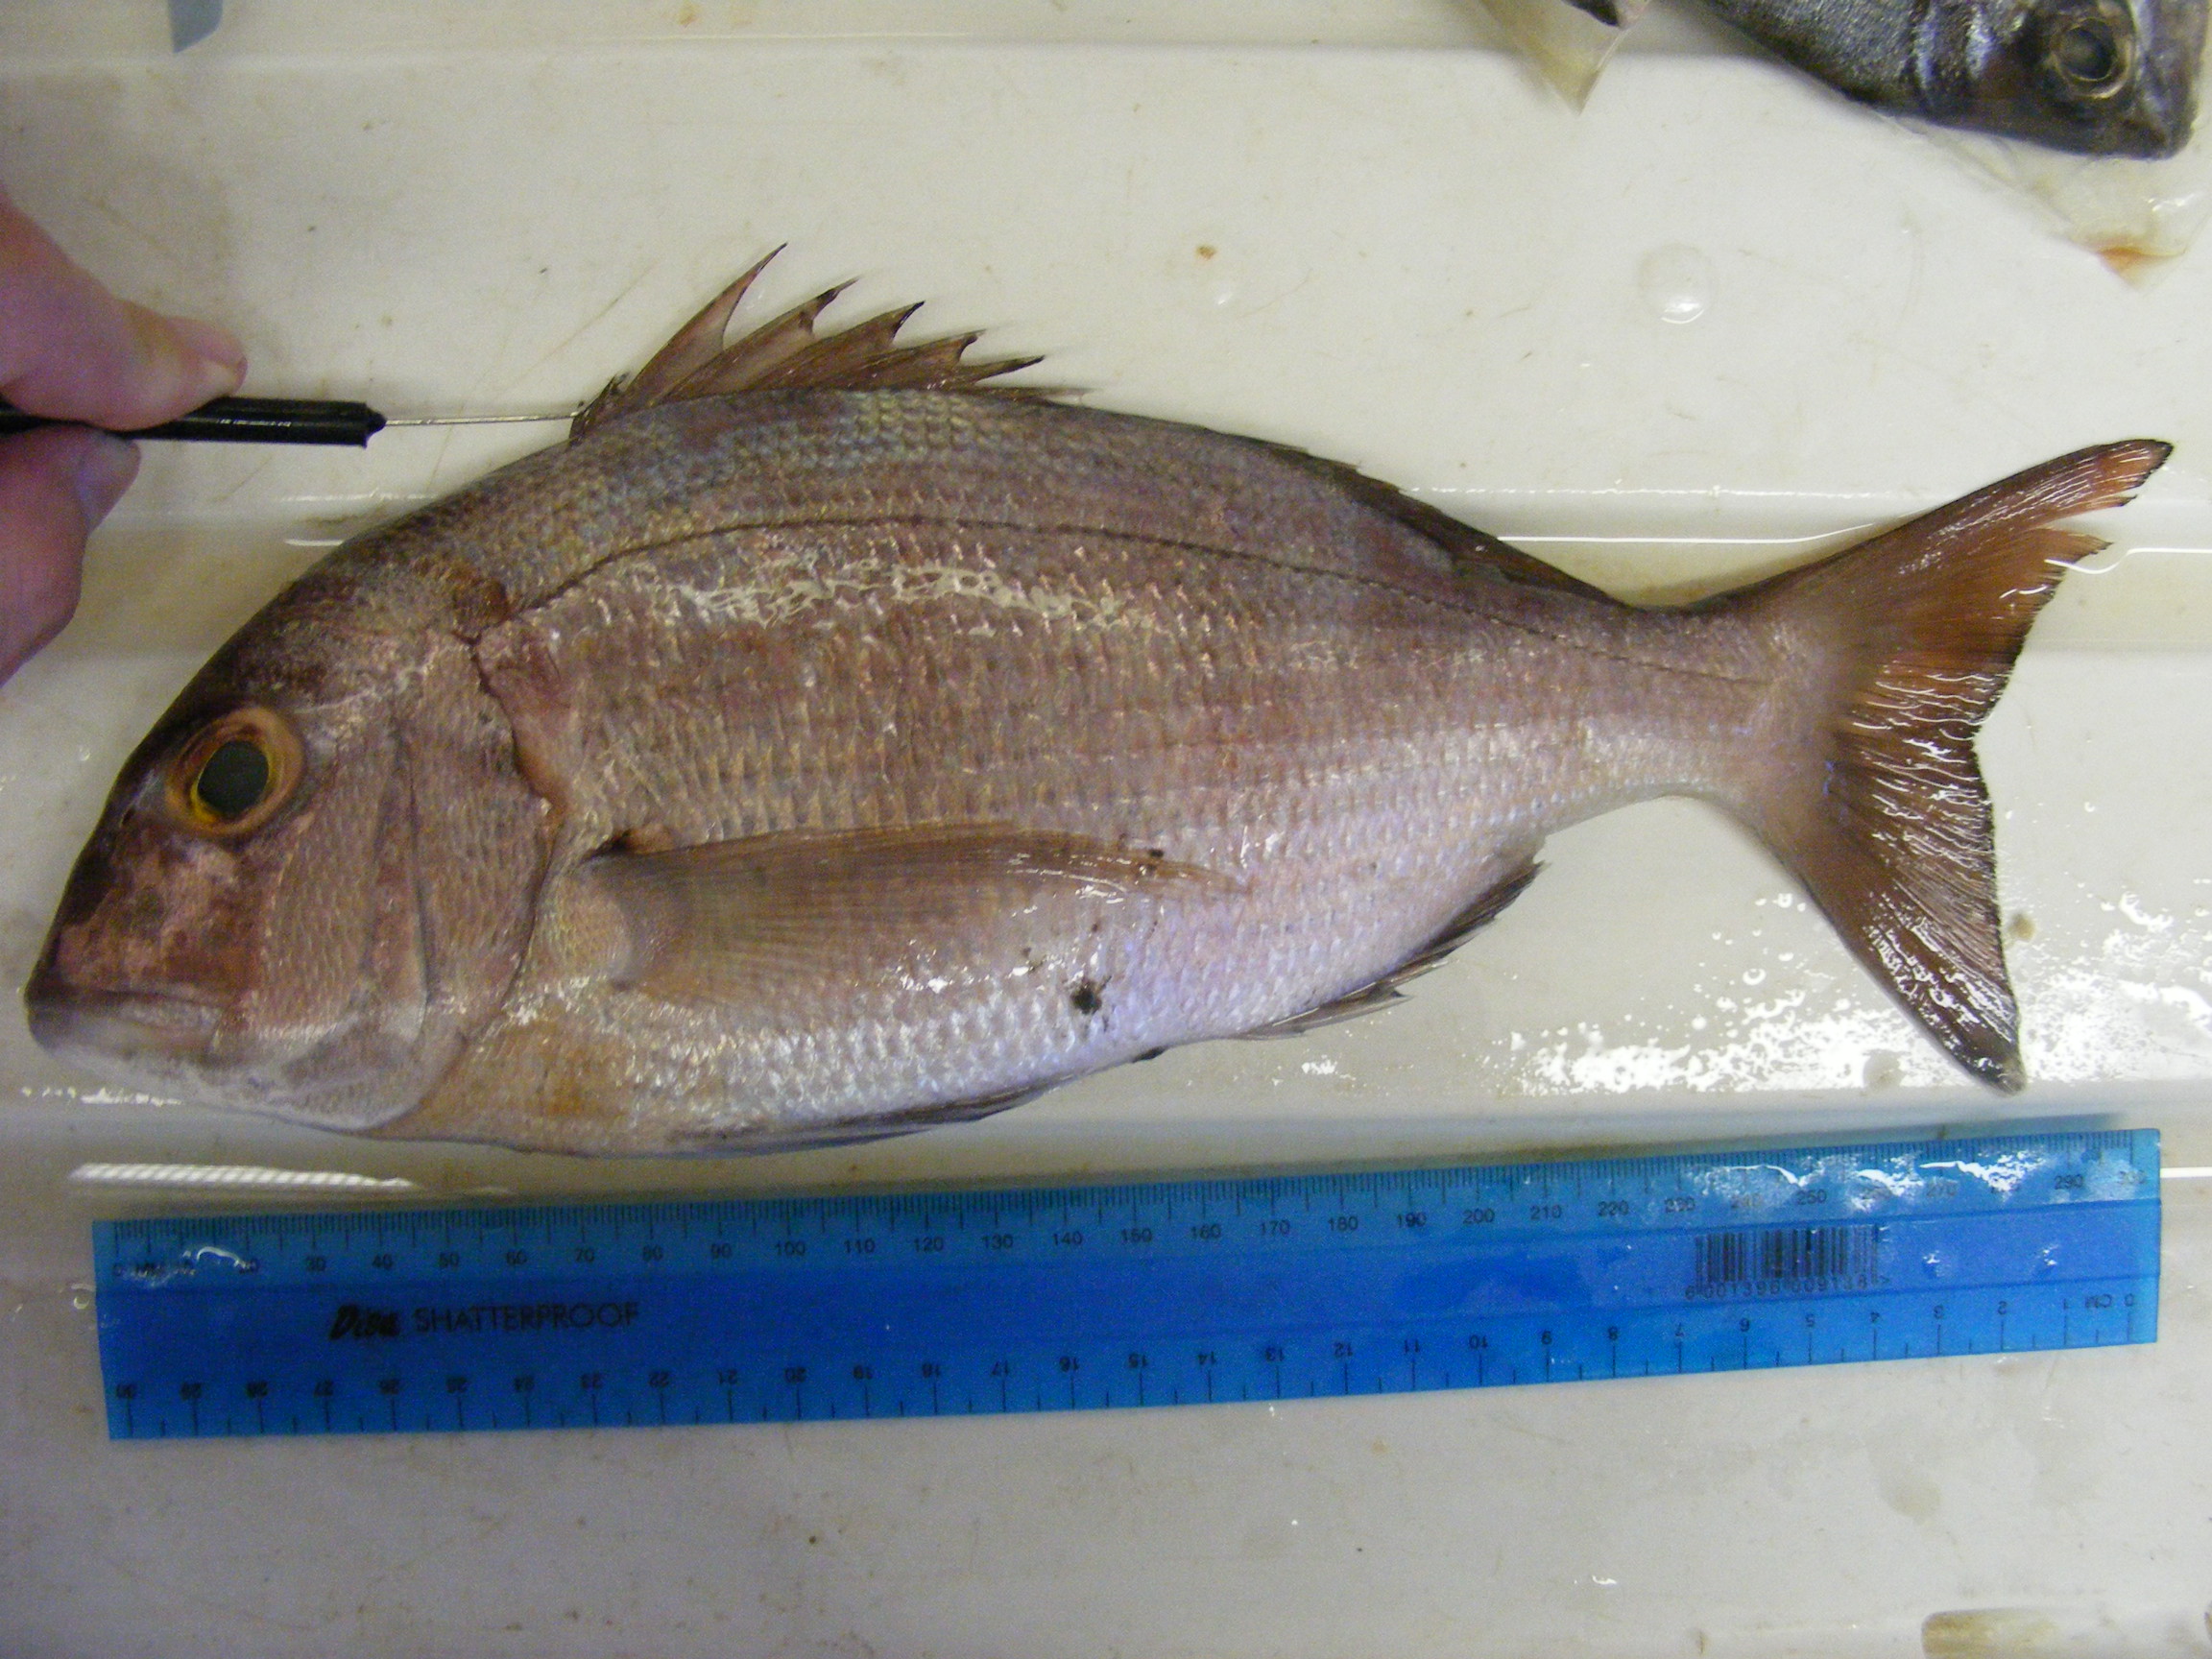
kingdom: Animalia
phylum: Chordata
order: Perciformes
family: Sparidae
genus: Cheimerius
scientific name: Cheimerius nufar
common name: Soldier
